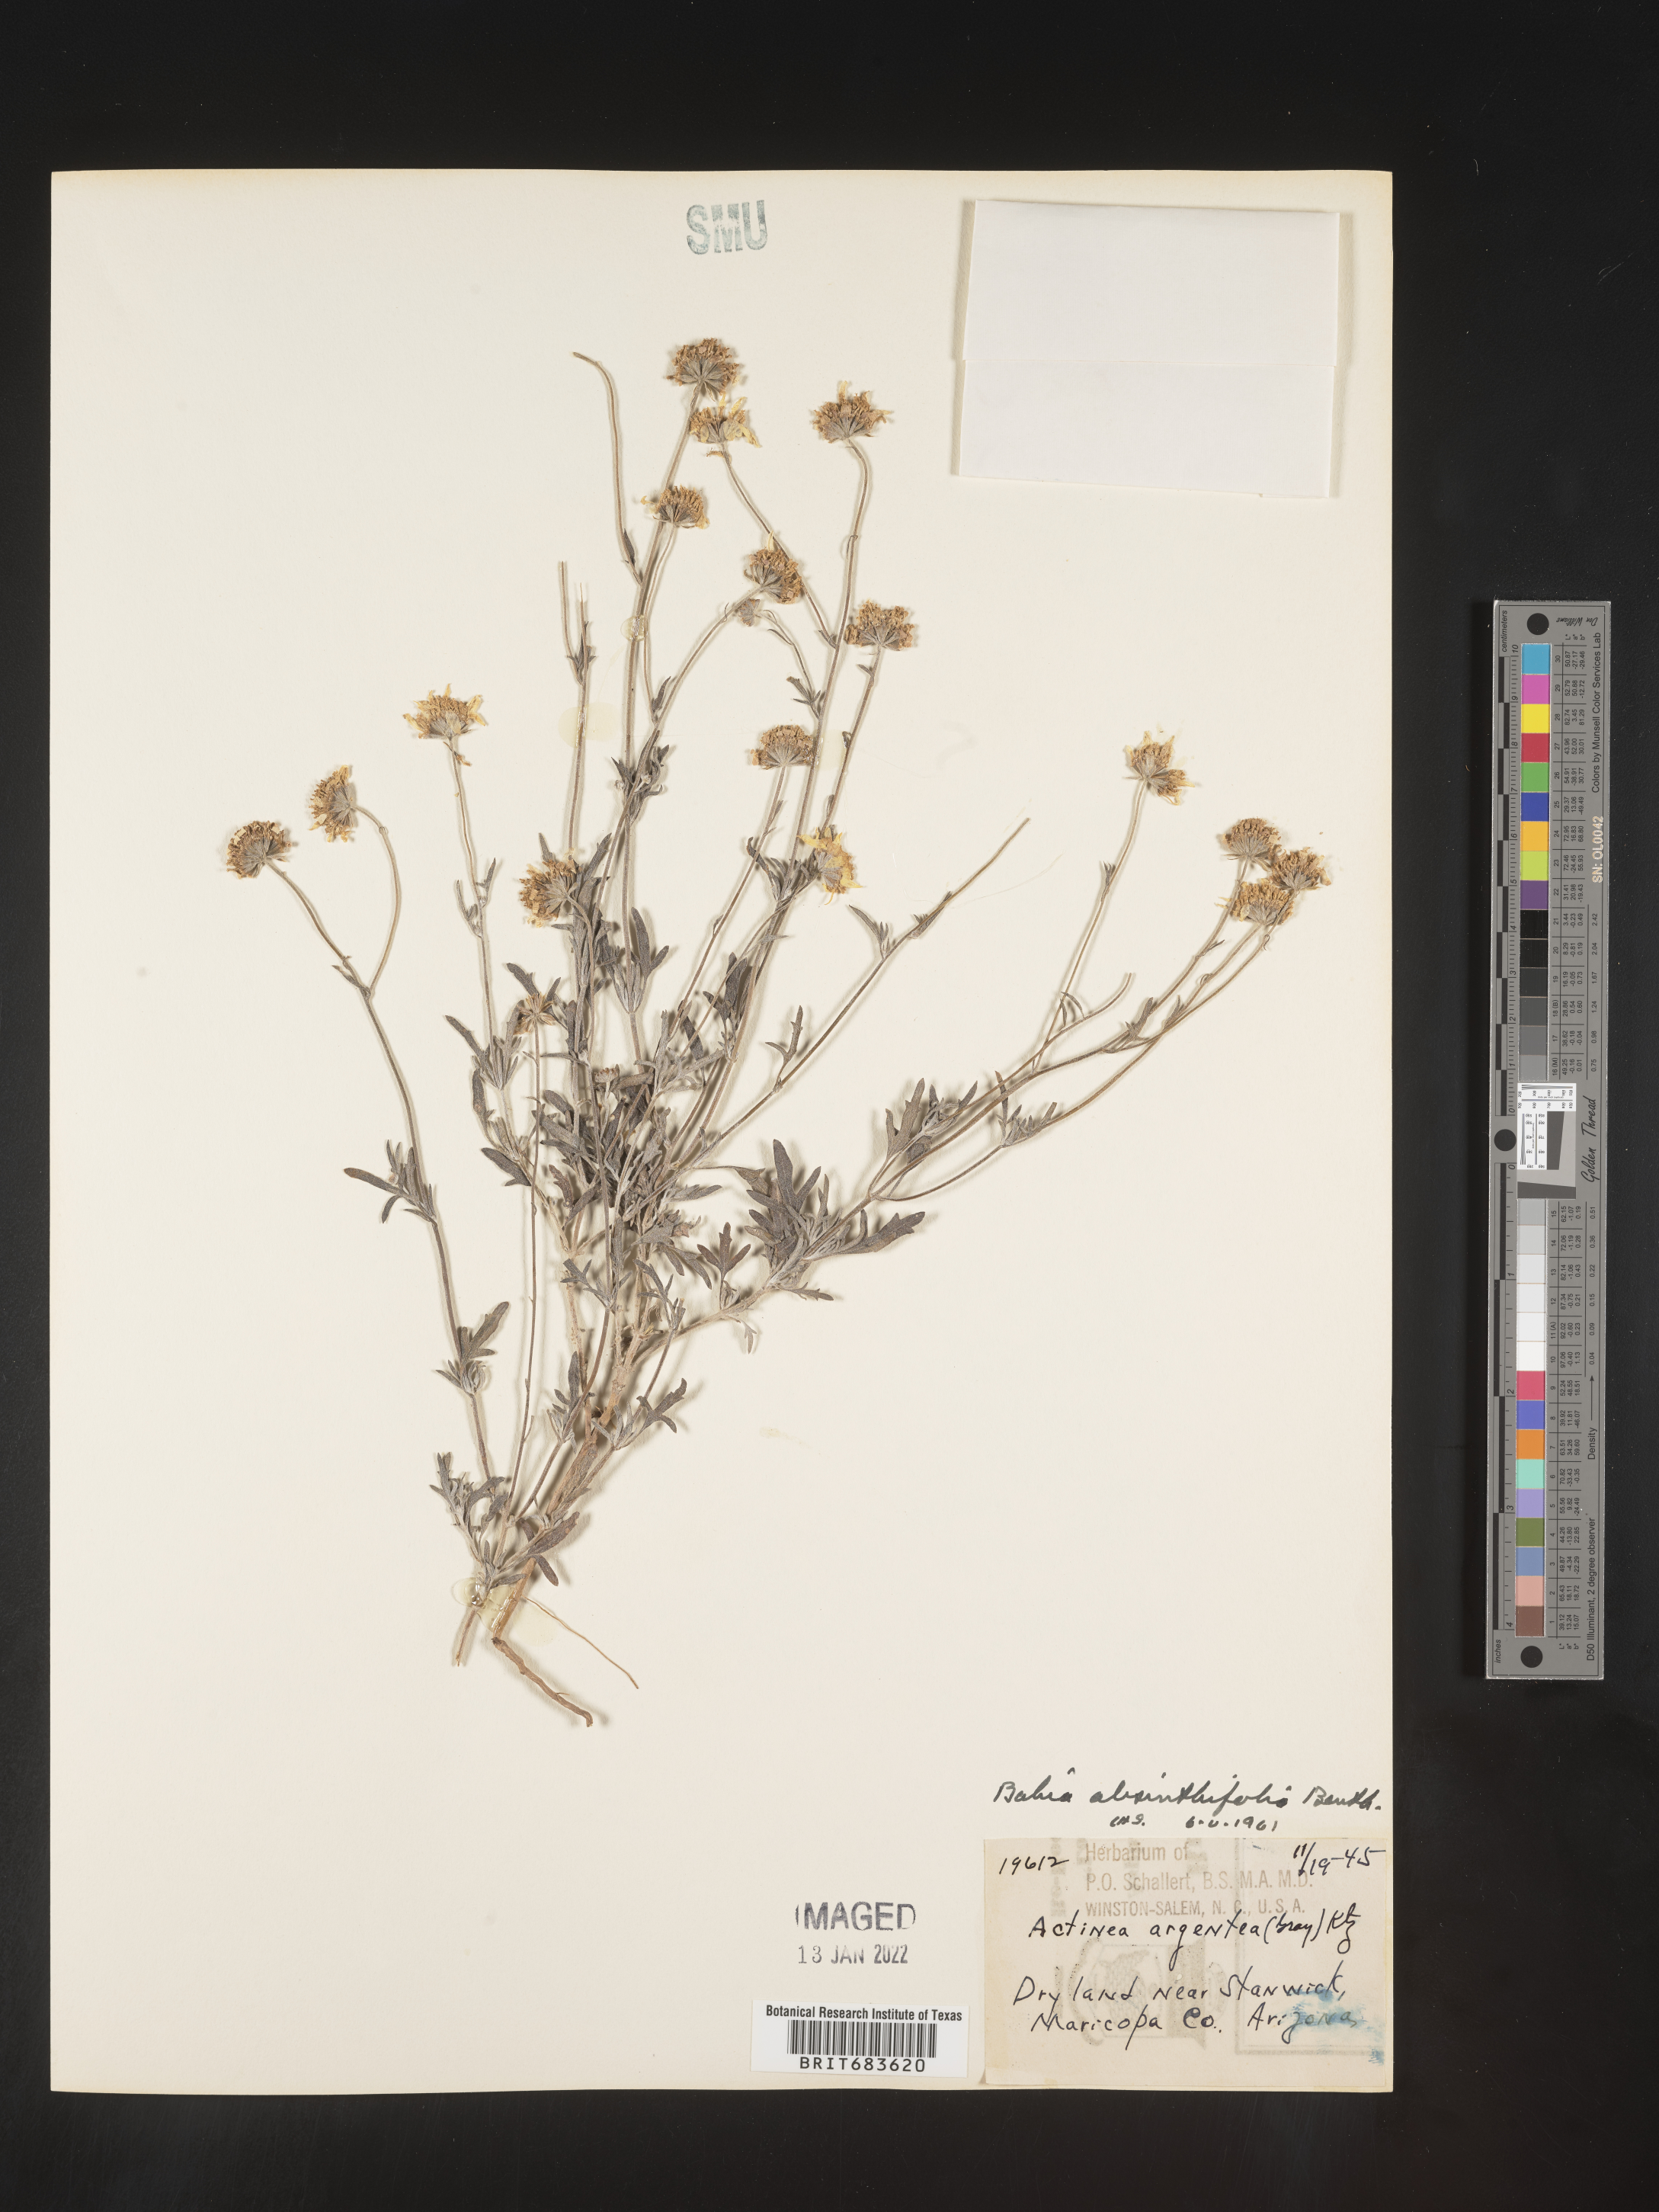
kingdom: Plantae
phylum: Tracheophyta
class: Magnoliopsida
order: Asterales
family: Asteraceae
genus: Picradeniopsis
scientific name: Picradeniopsis absinthifolia
